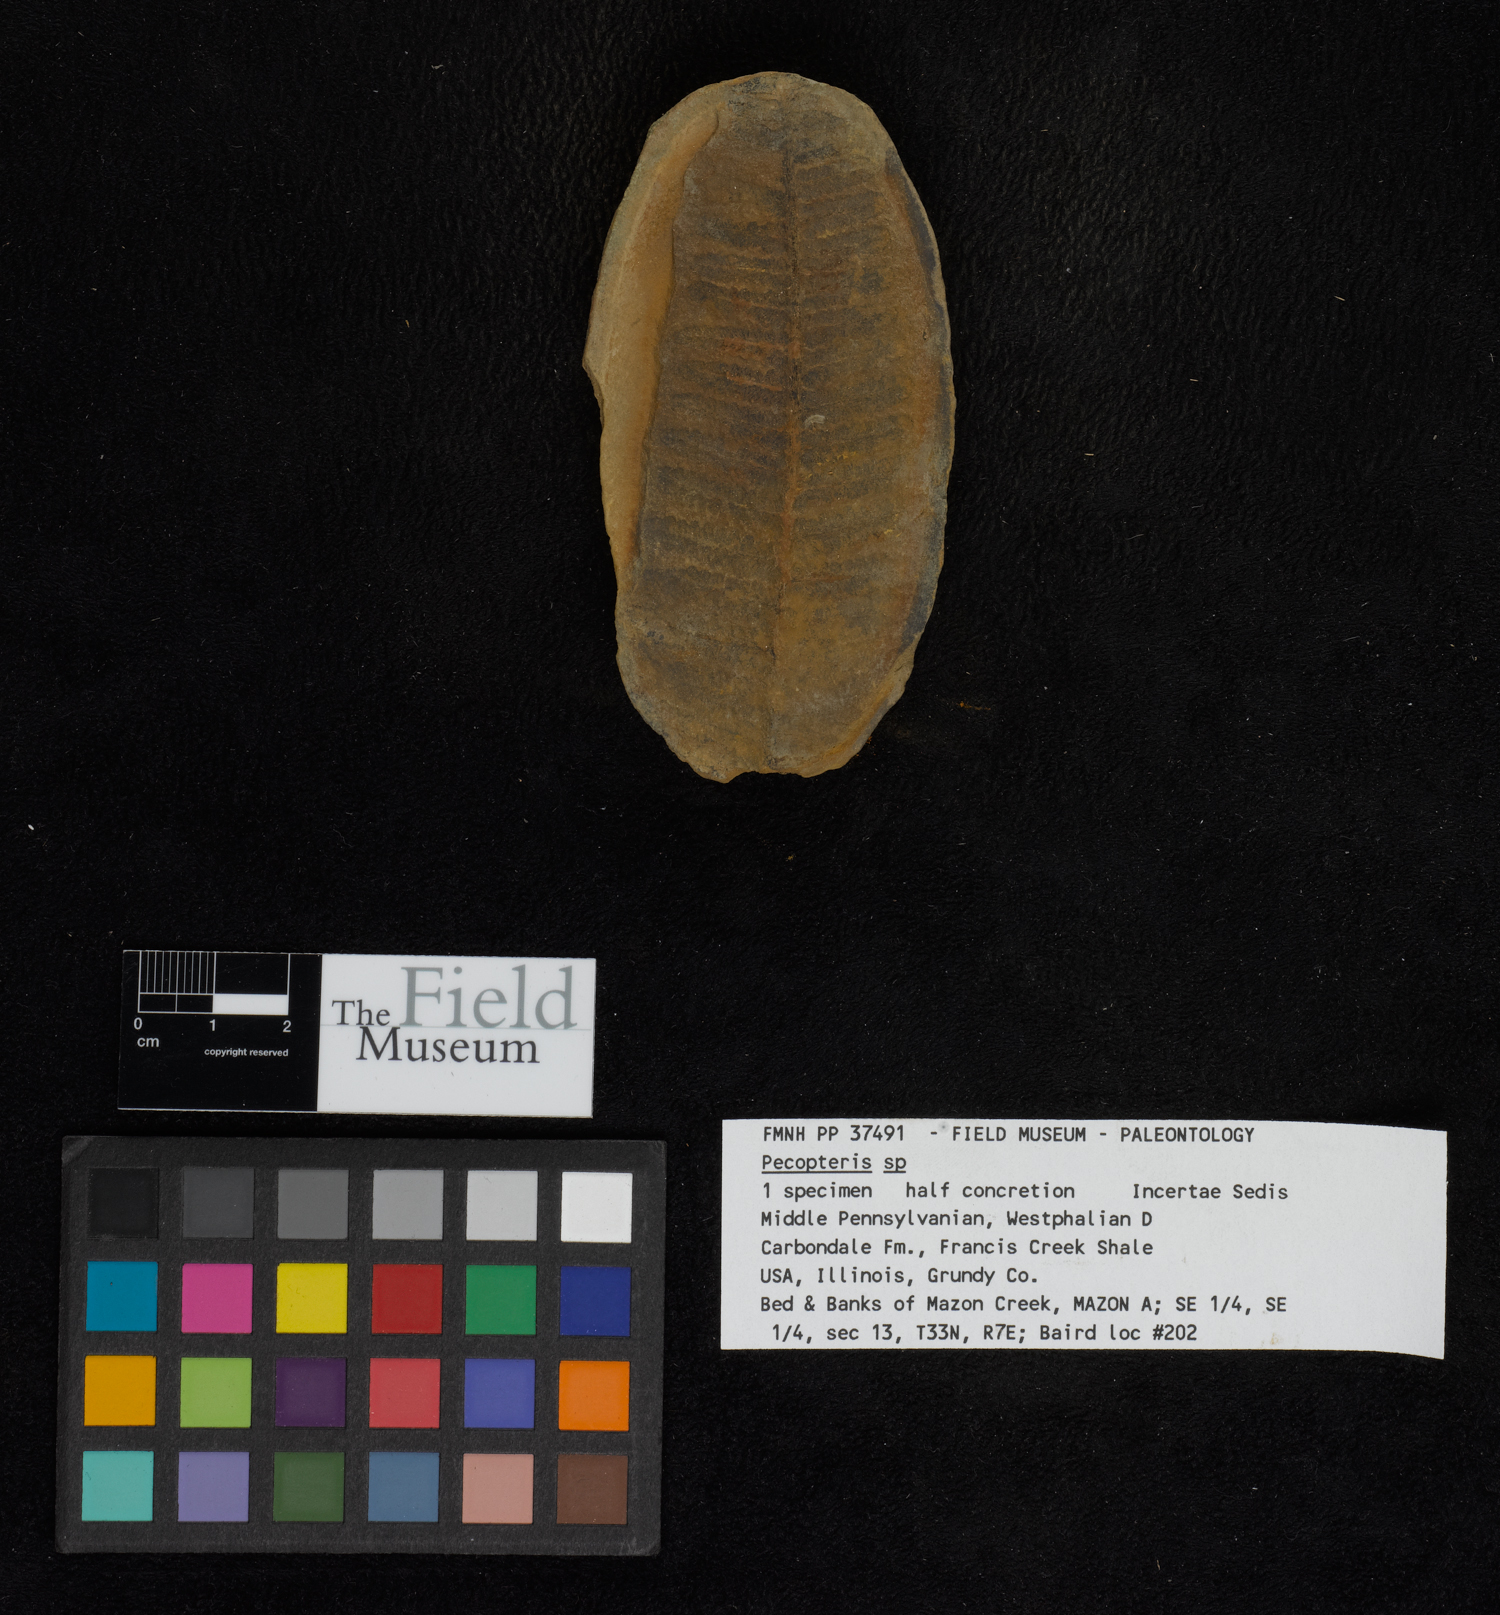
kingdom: Plantae
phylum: Tracheophyta
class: Polypodiopsida
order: Marattiales
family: Asterothecaceae
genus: Pecopteris
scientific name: Pecopteris
